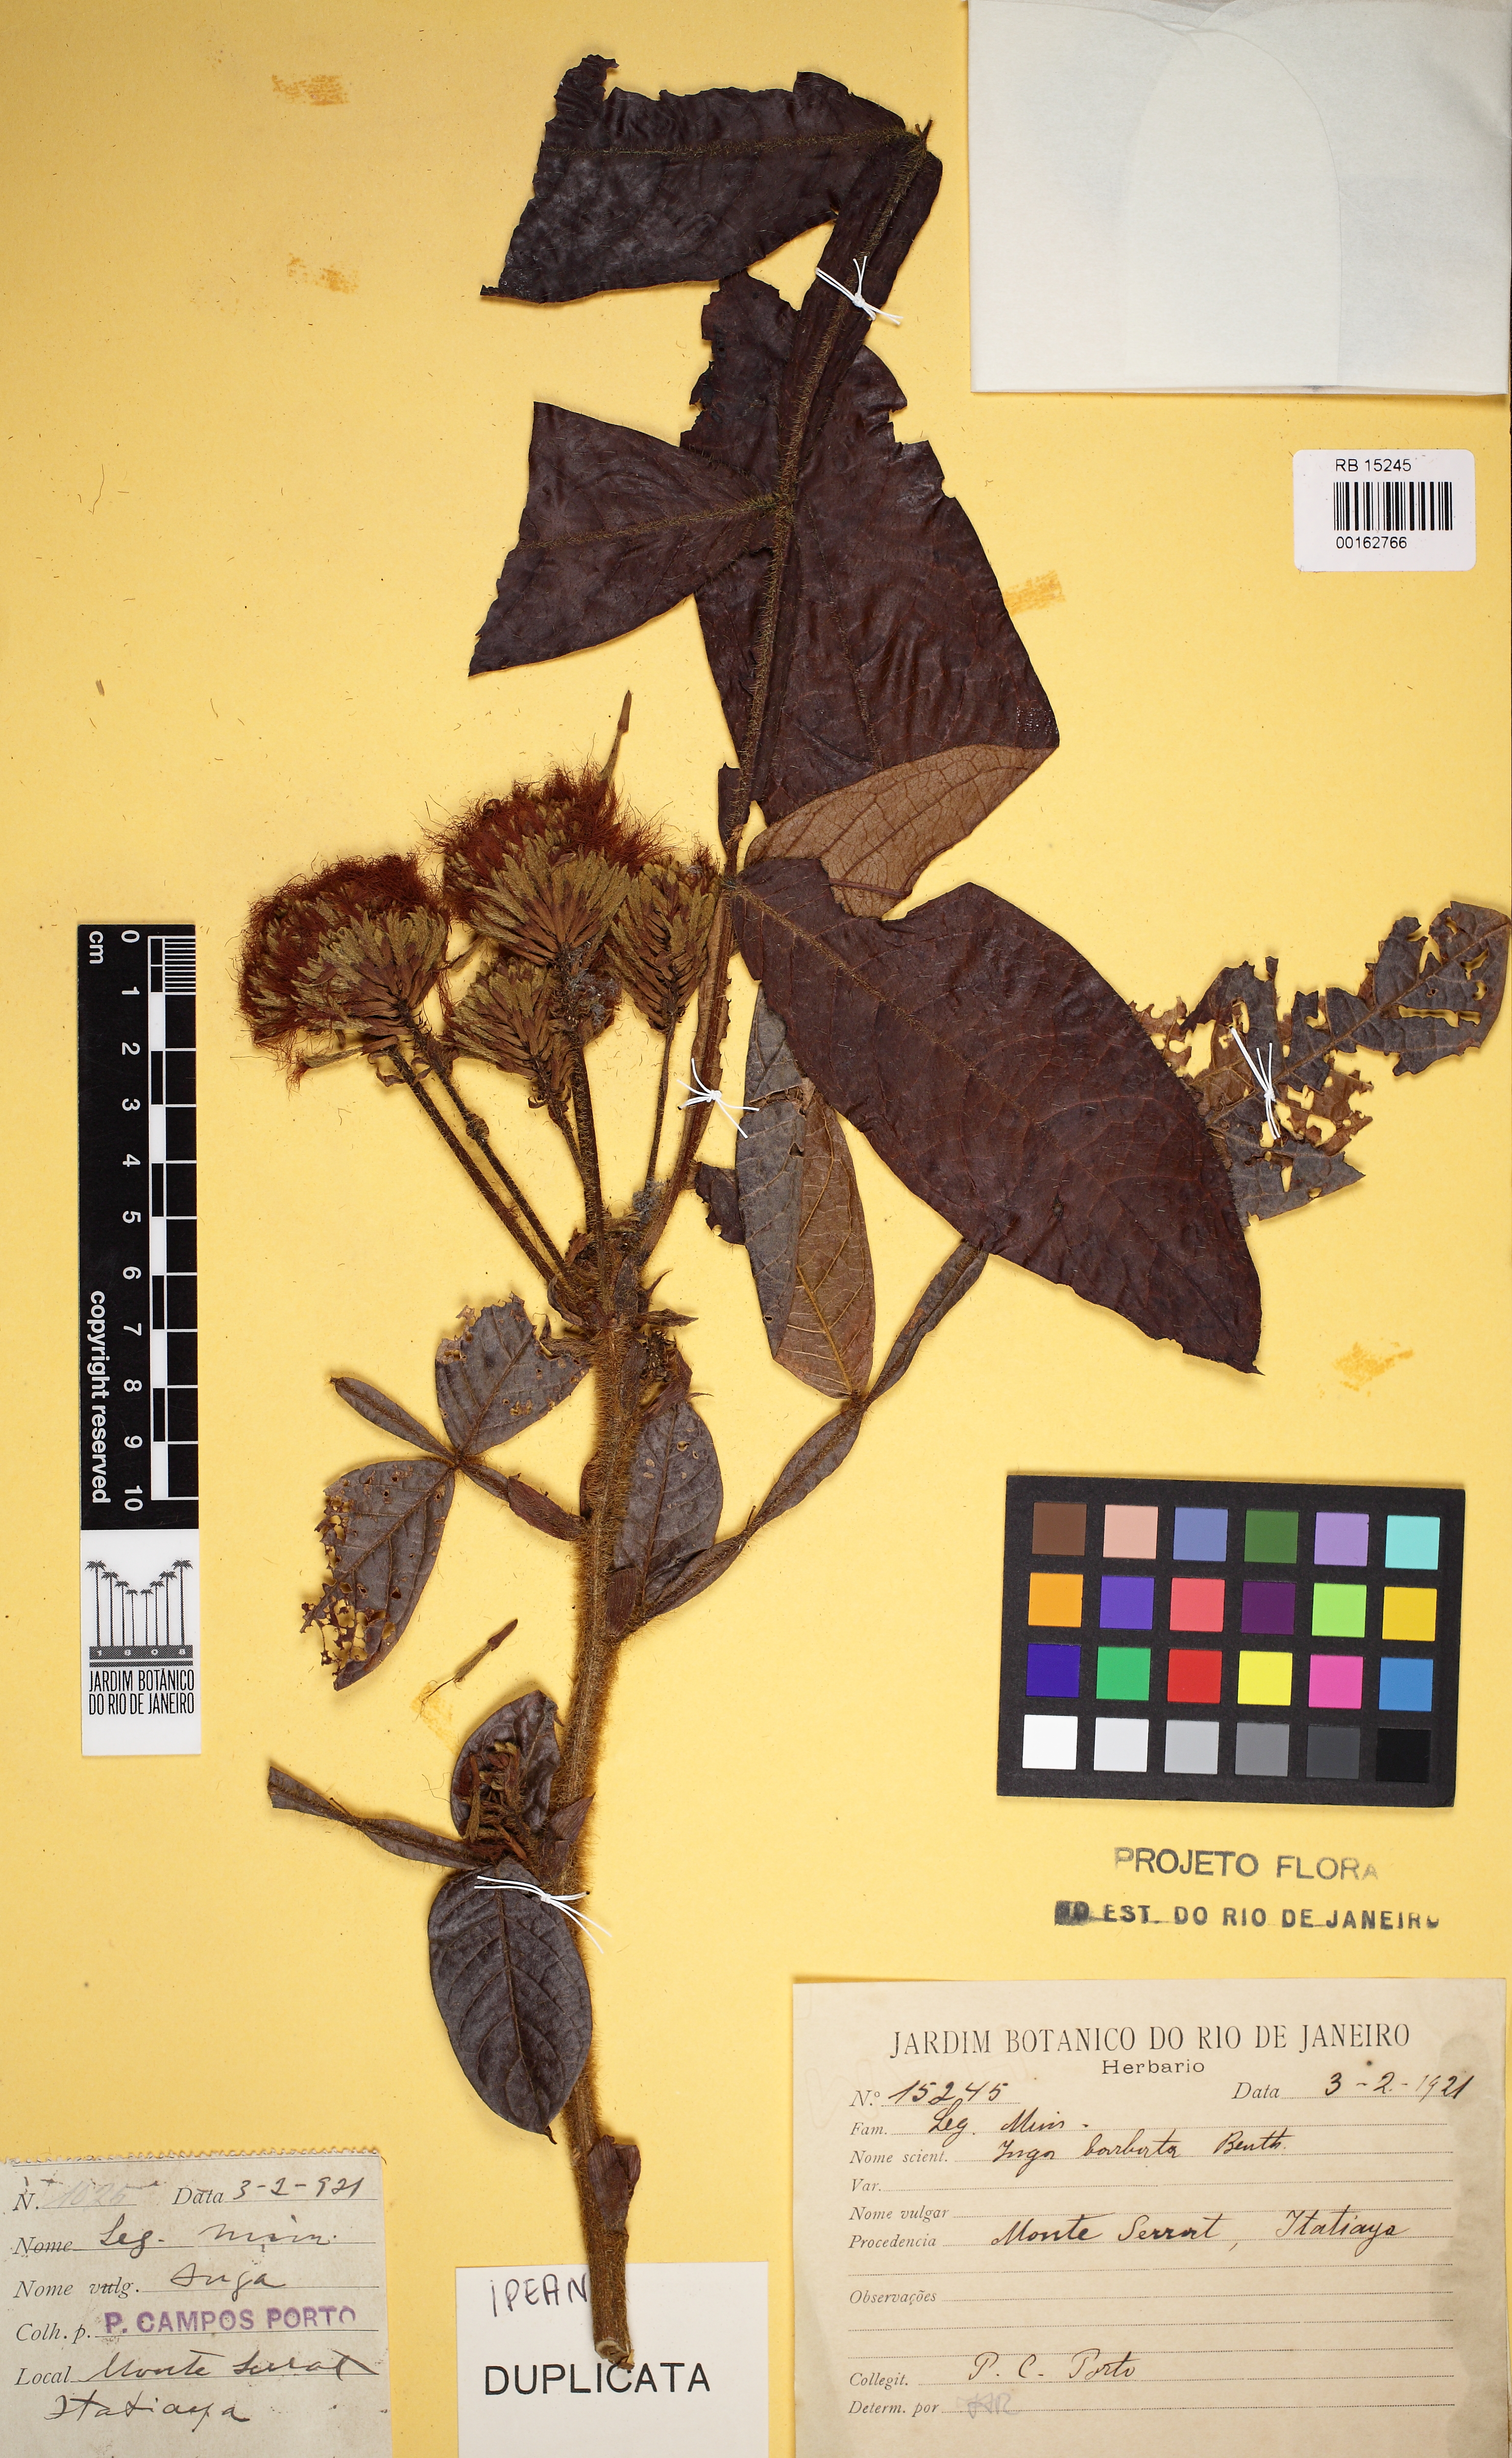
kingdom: Plantae
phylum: Tracheophyta
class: Magnoliopsida
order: Fabales
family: Fabaceae
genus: Inga
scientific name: Inga barbata
